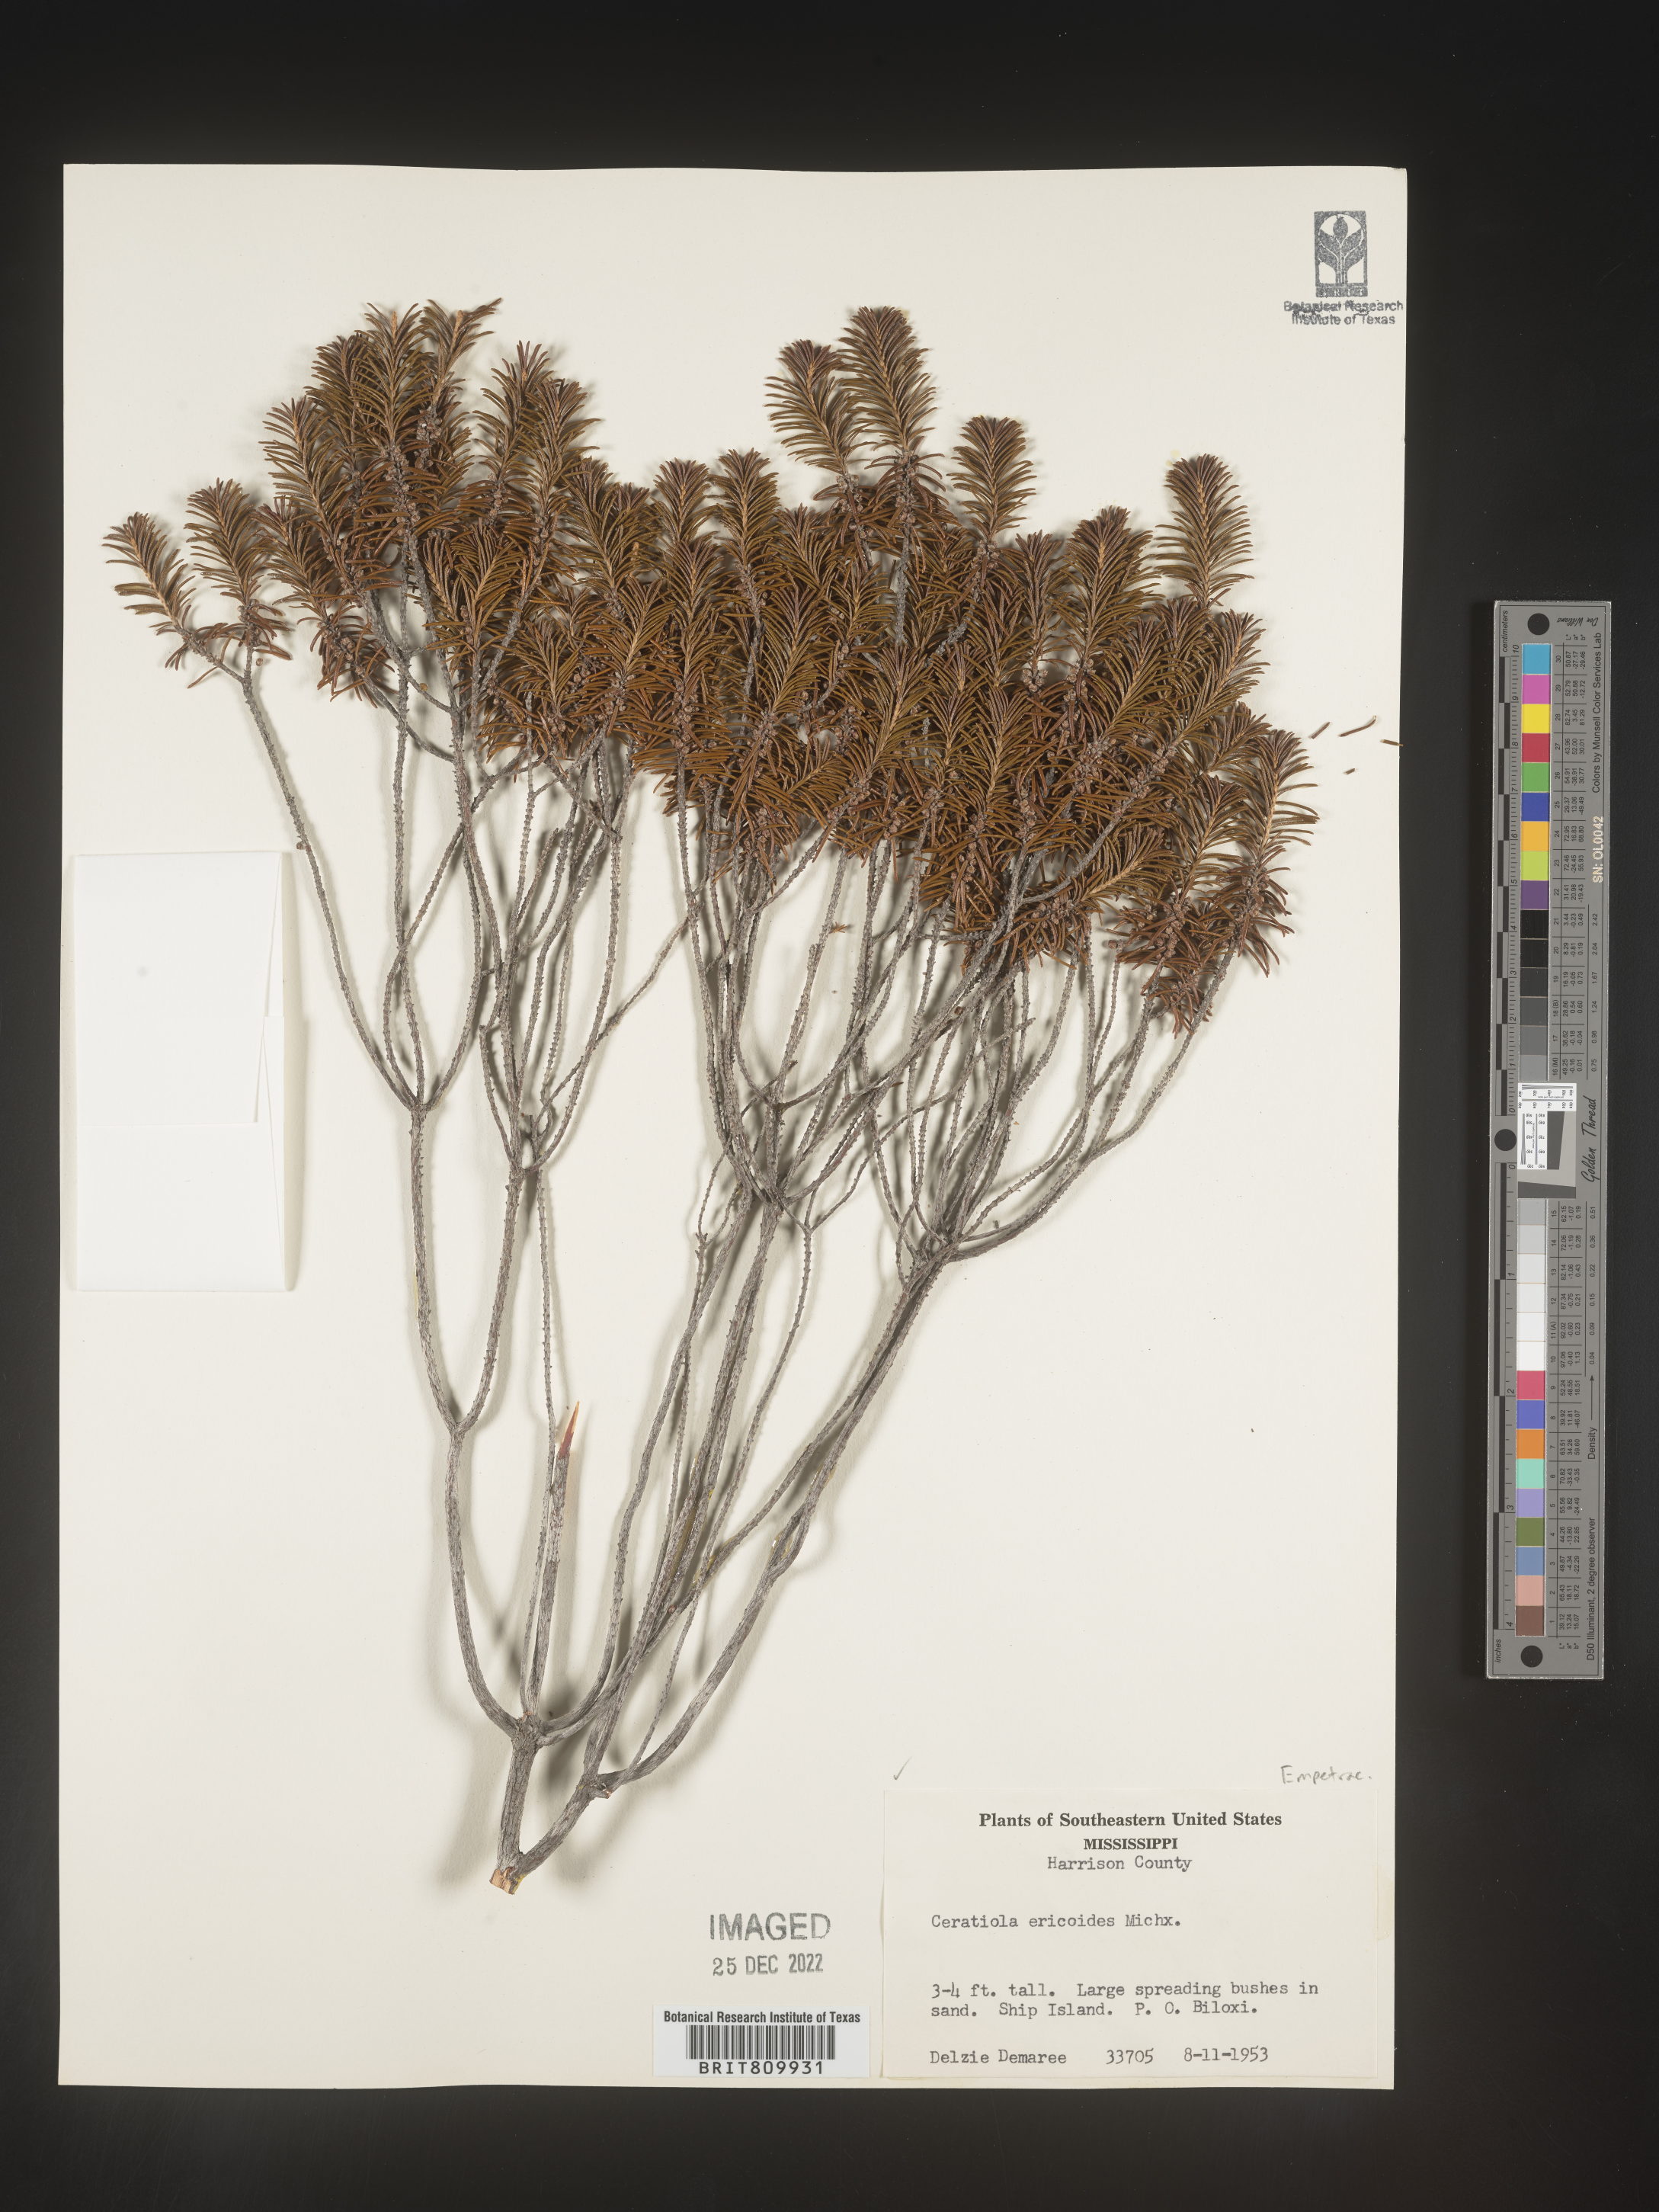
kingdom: Plantae
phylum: Tracheophyta
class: Magnoliopsida
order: Ericales
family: Ericaceae
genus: Ceratiola
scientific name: Ceratiola ericoides
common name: Sandhill-rosemary
